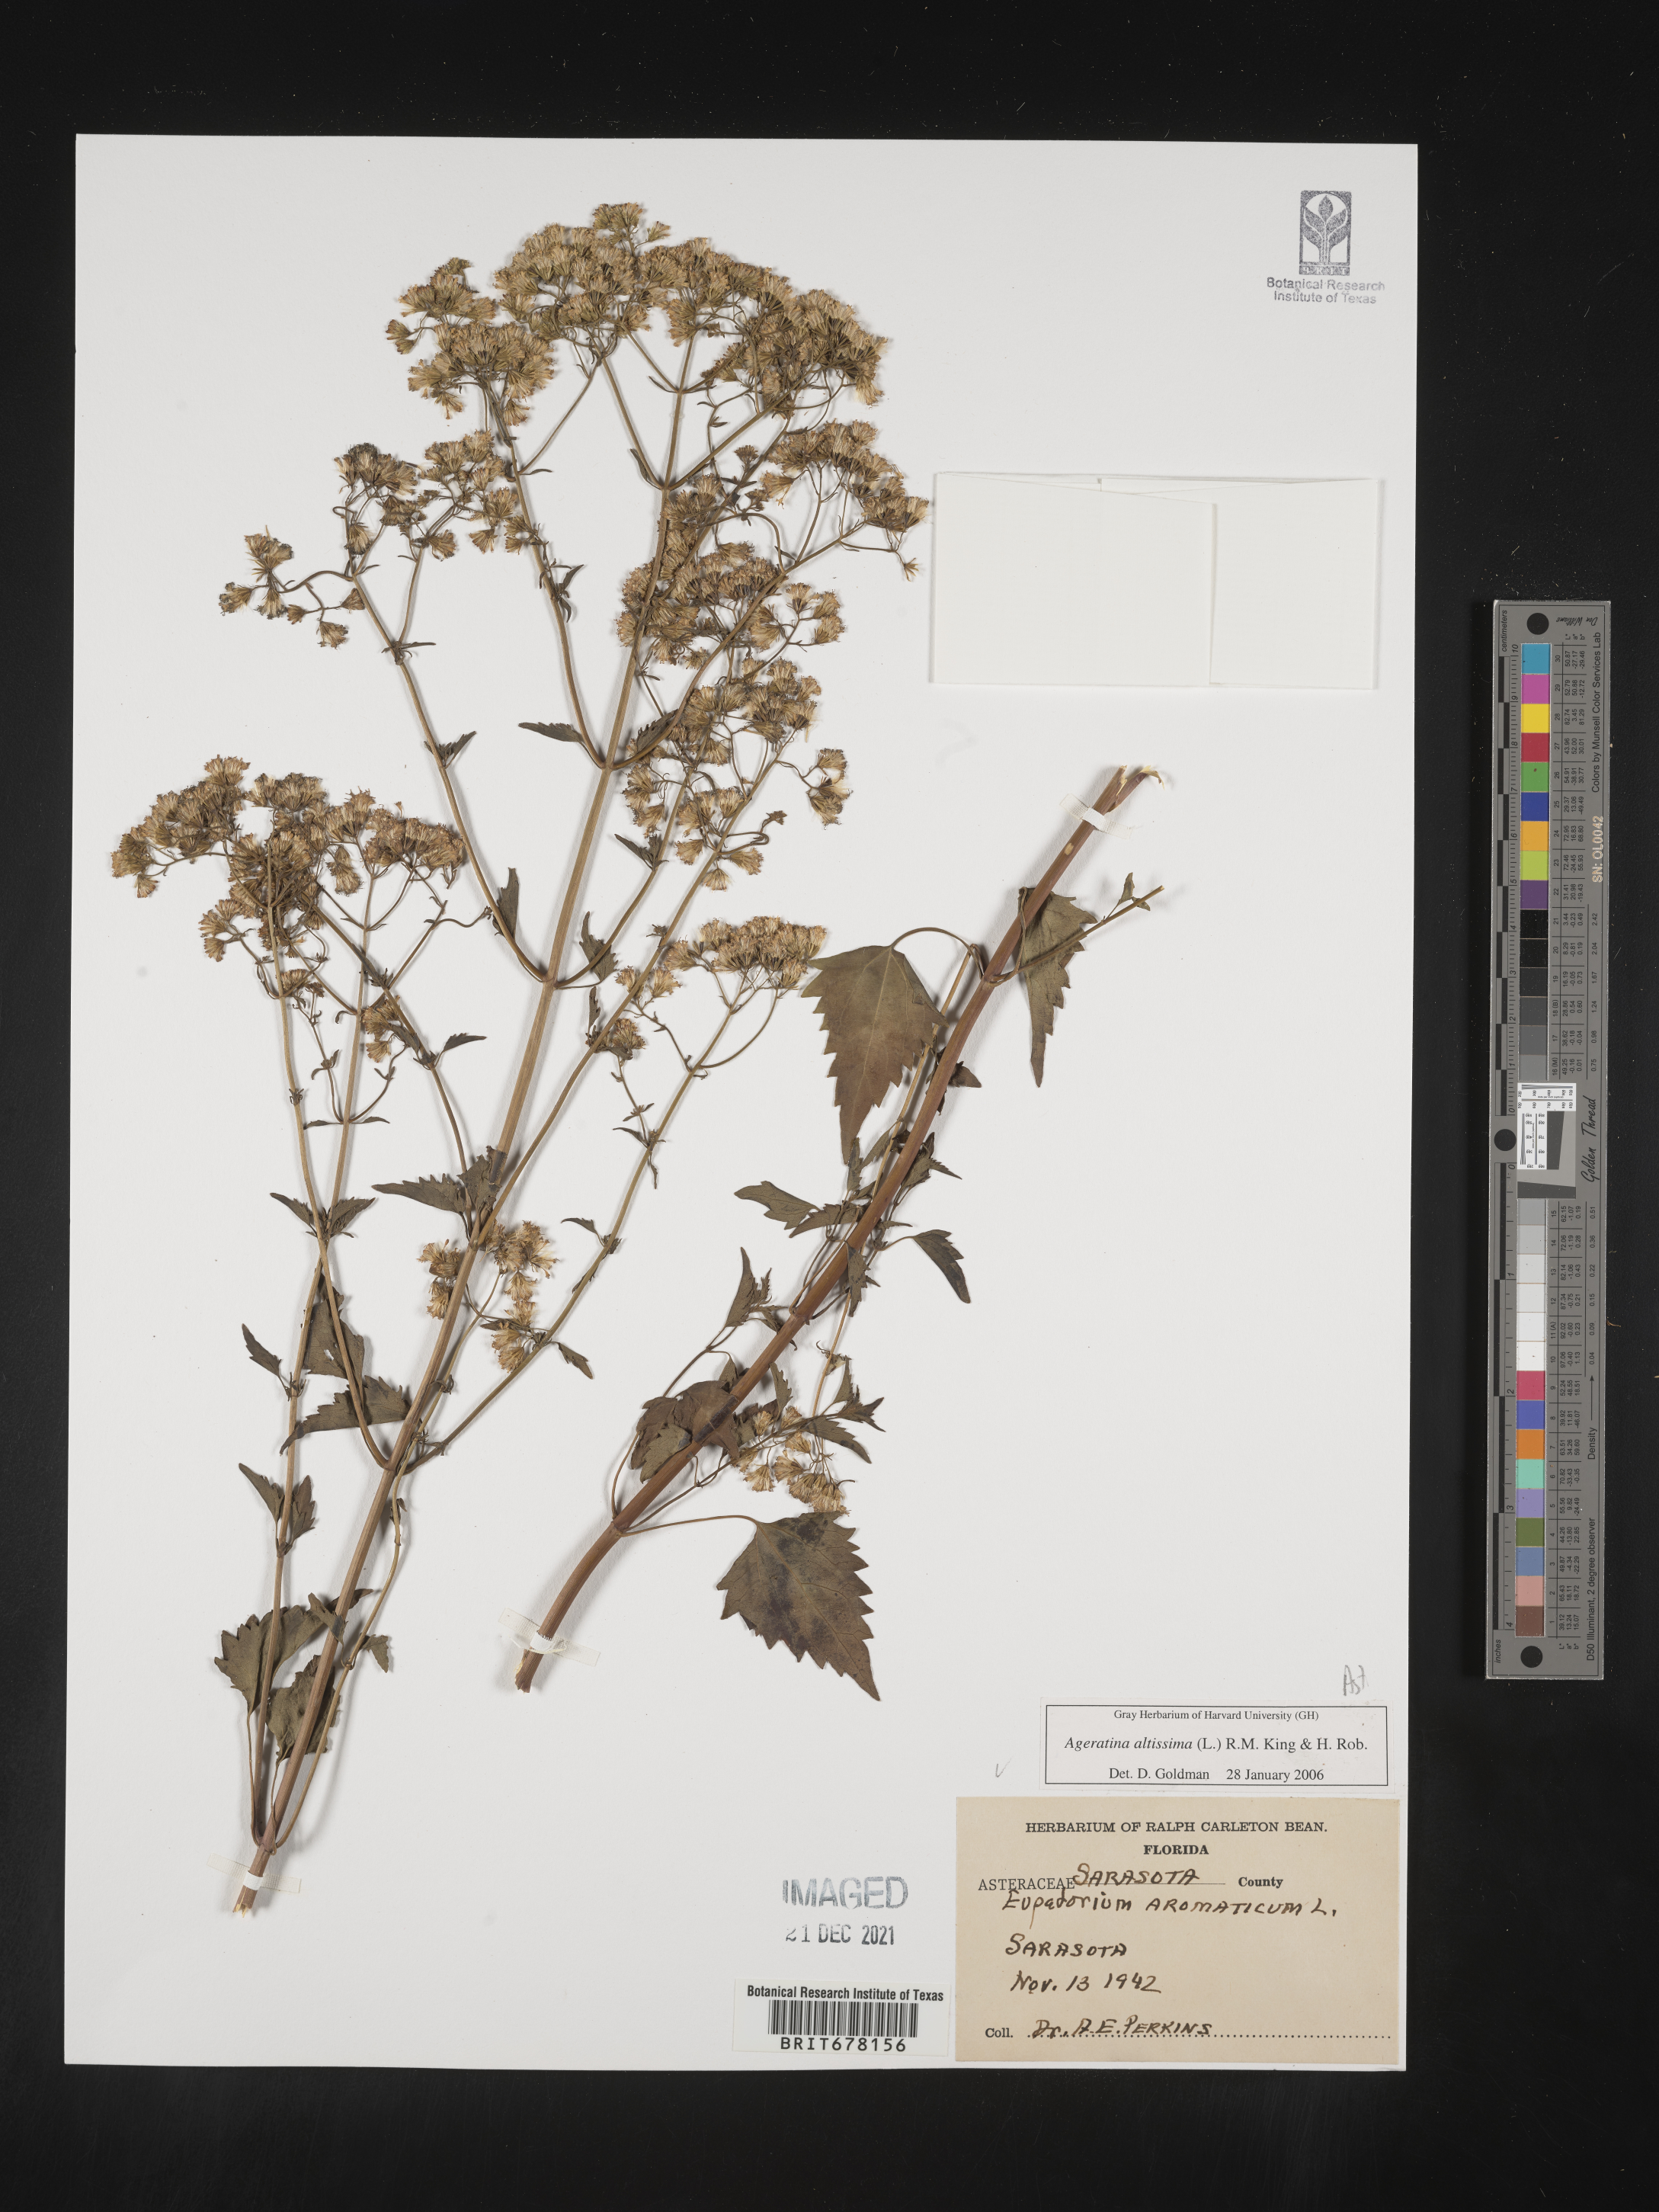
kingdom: Plantae
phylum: Tracheophyta
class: Magnoliopsida
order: Asterales
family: Asteraceae
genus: Eupatorium
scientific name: Eupatorium
